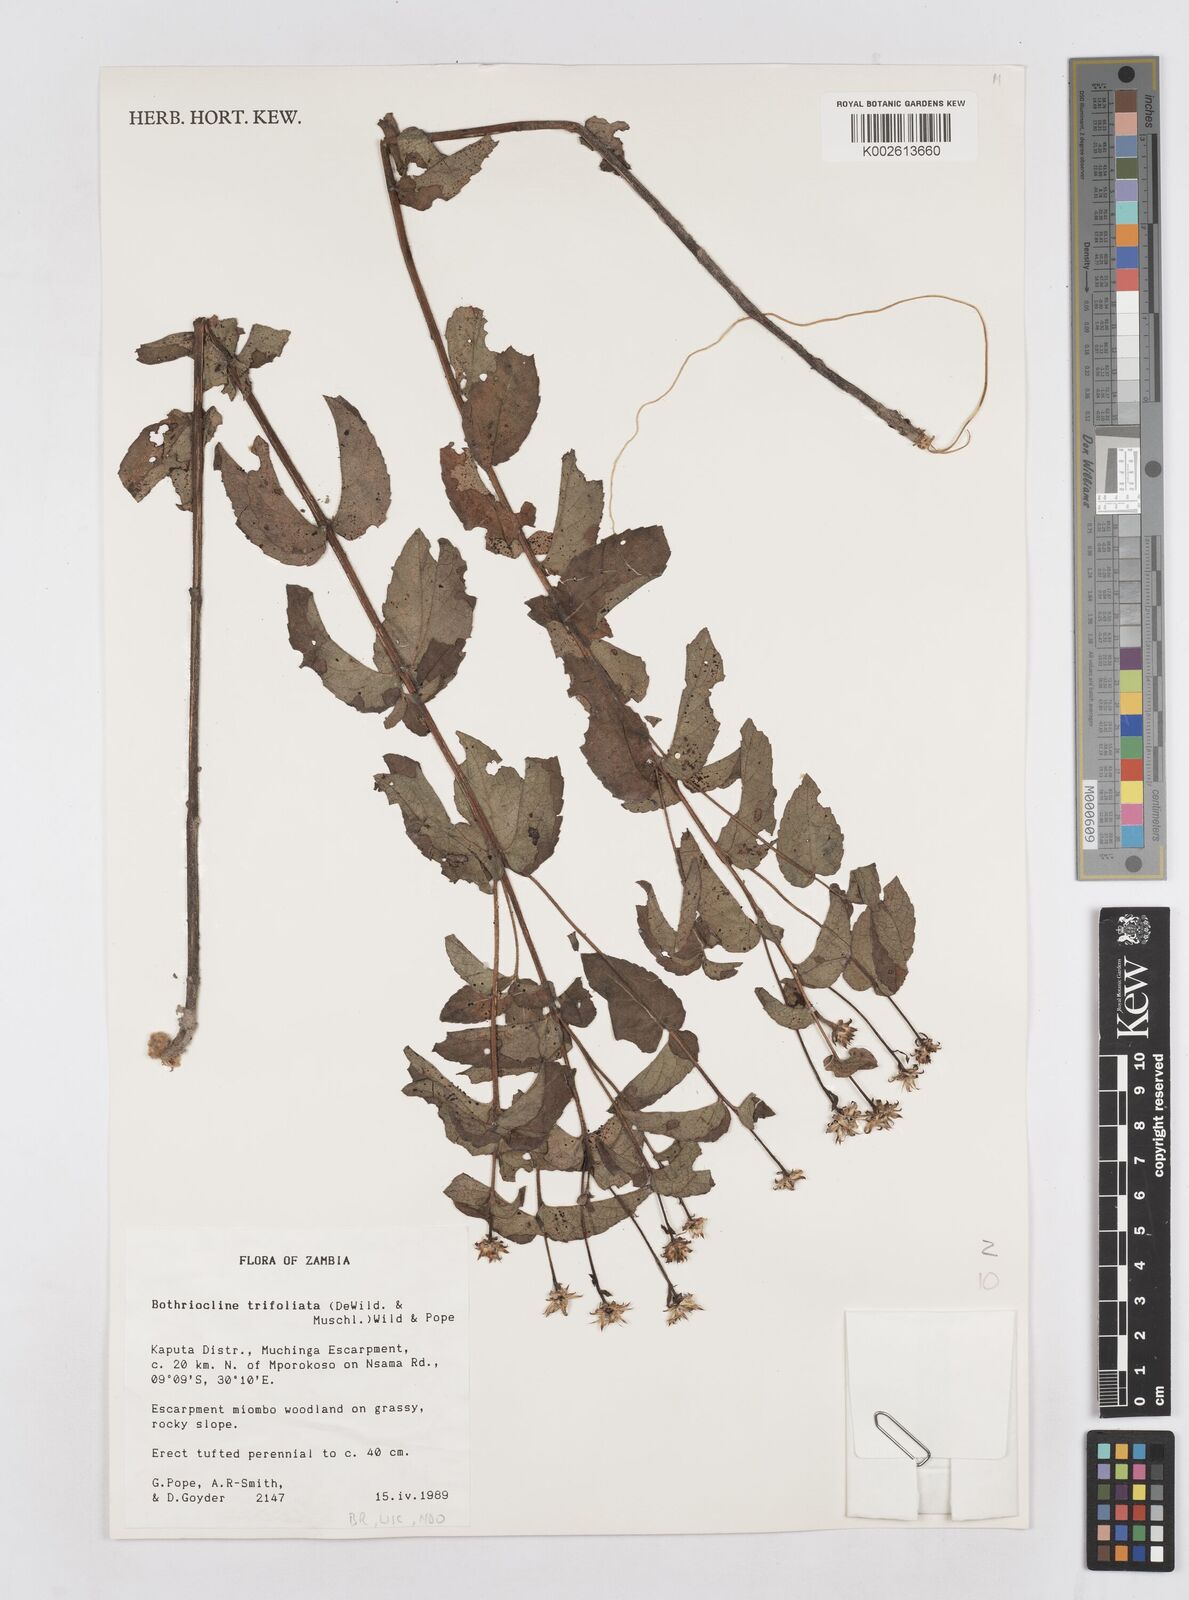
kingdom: Plantae
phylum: Tracheophyta
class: Magnoliopsida
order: Asterales
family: Asteraceae
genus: Bothriocline
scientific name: Bothriocline trifoliata
